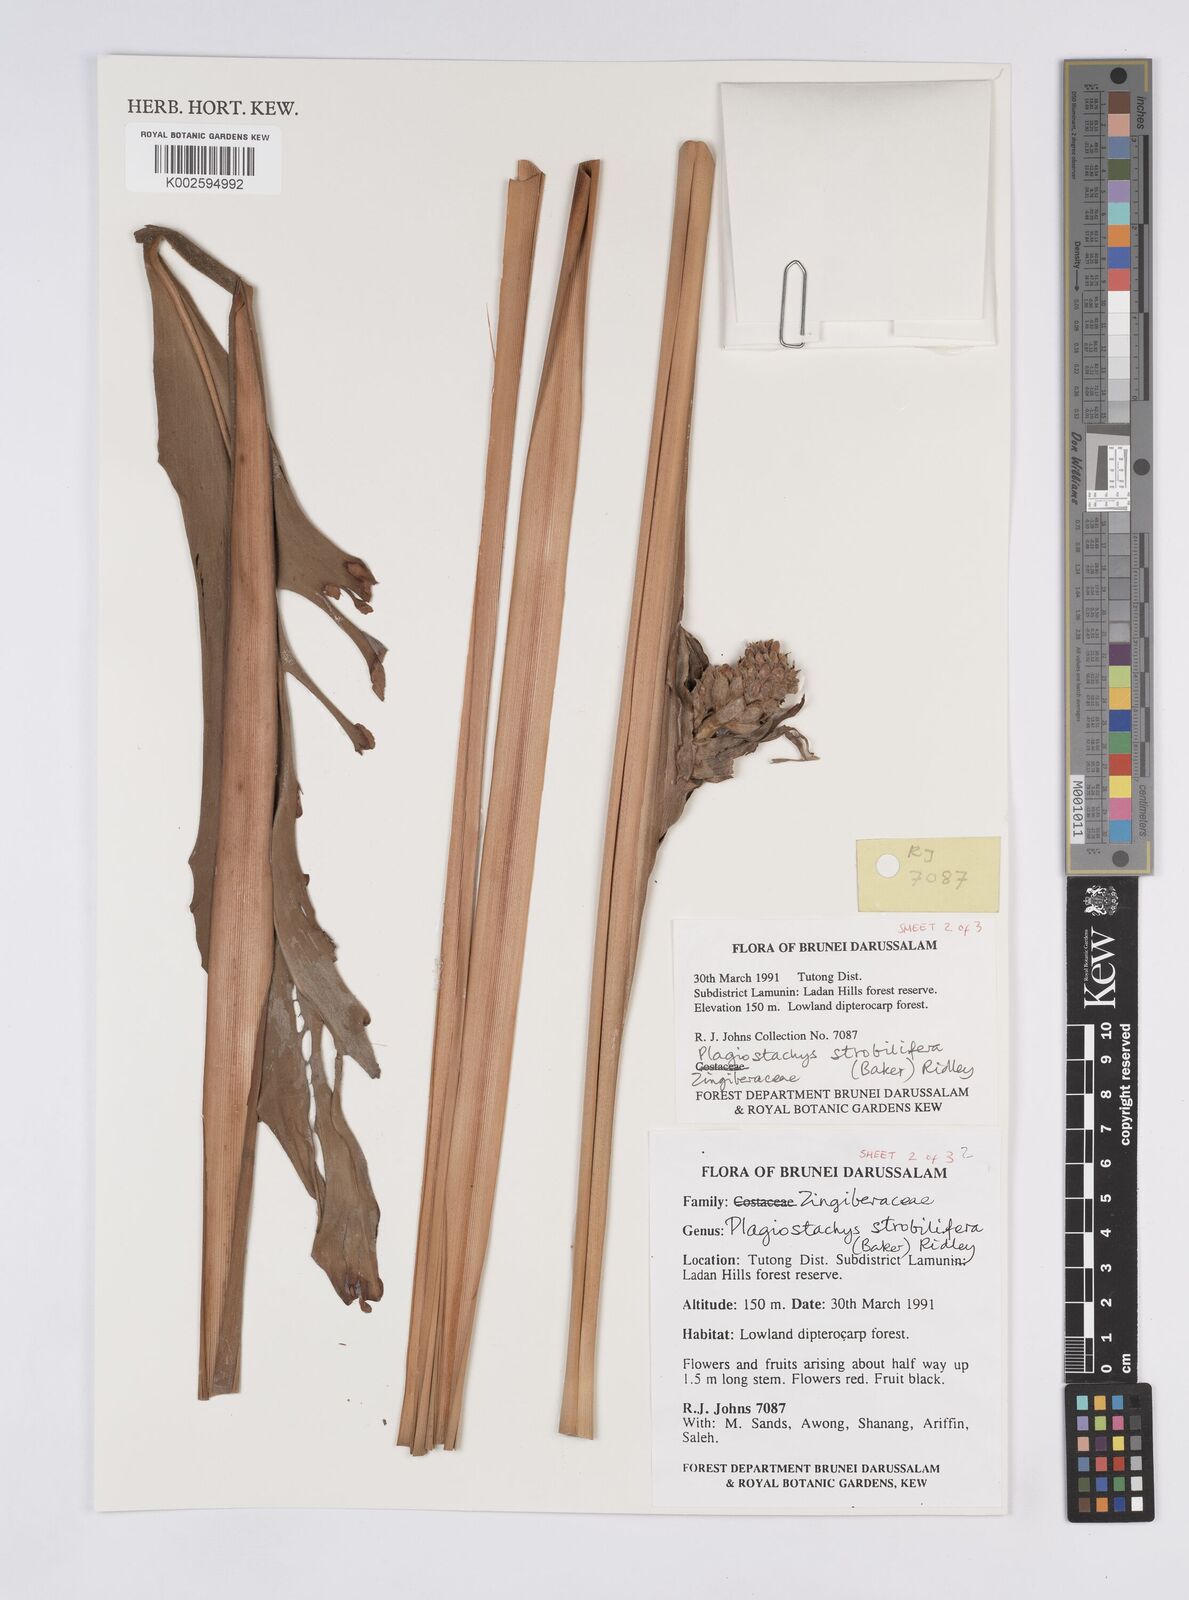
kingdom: Plantae
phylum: Tracheophyta
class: Liliopsida
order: Zingiberales
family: Zingiberaceae
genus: Plagiostachys
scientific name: Plagiostachys strobilifera
